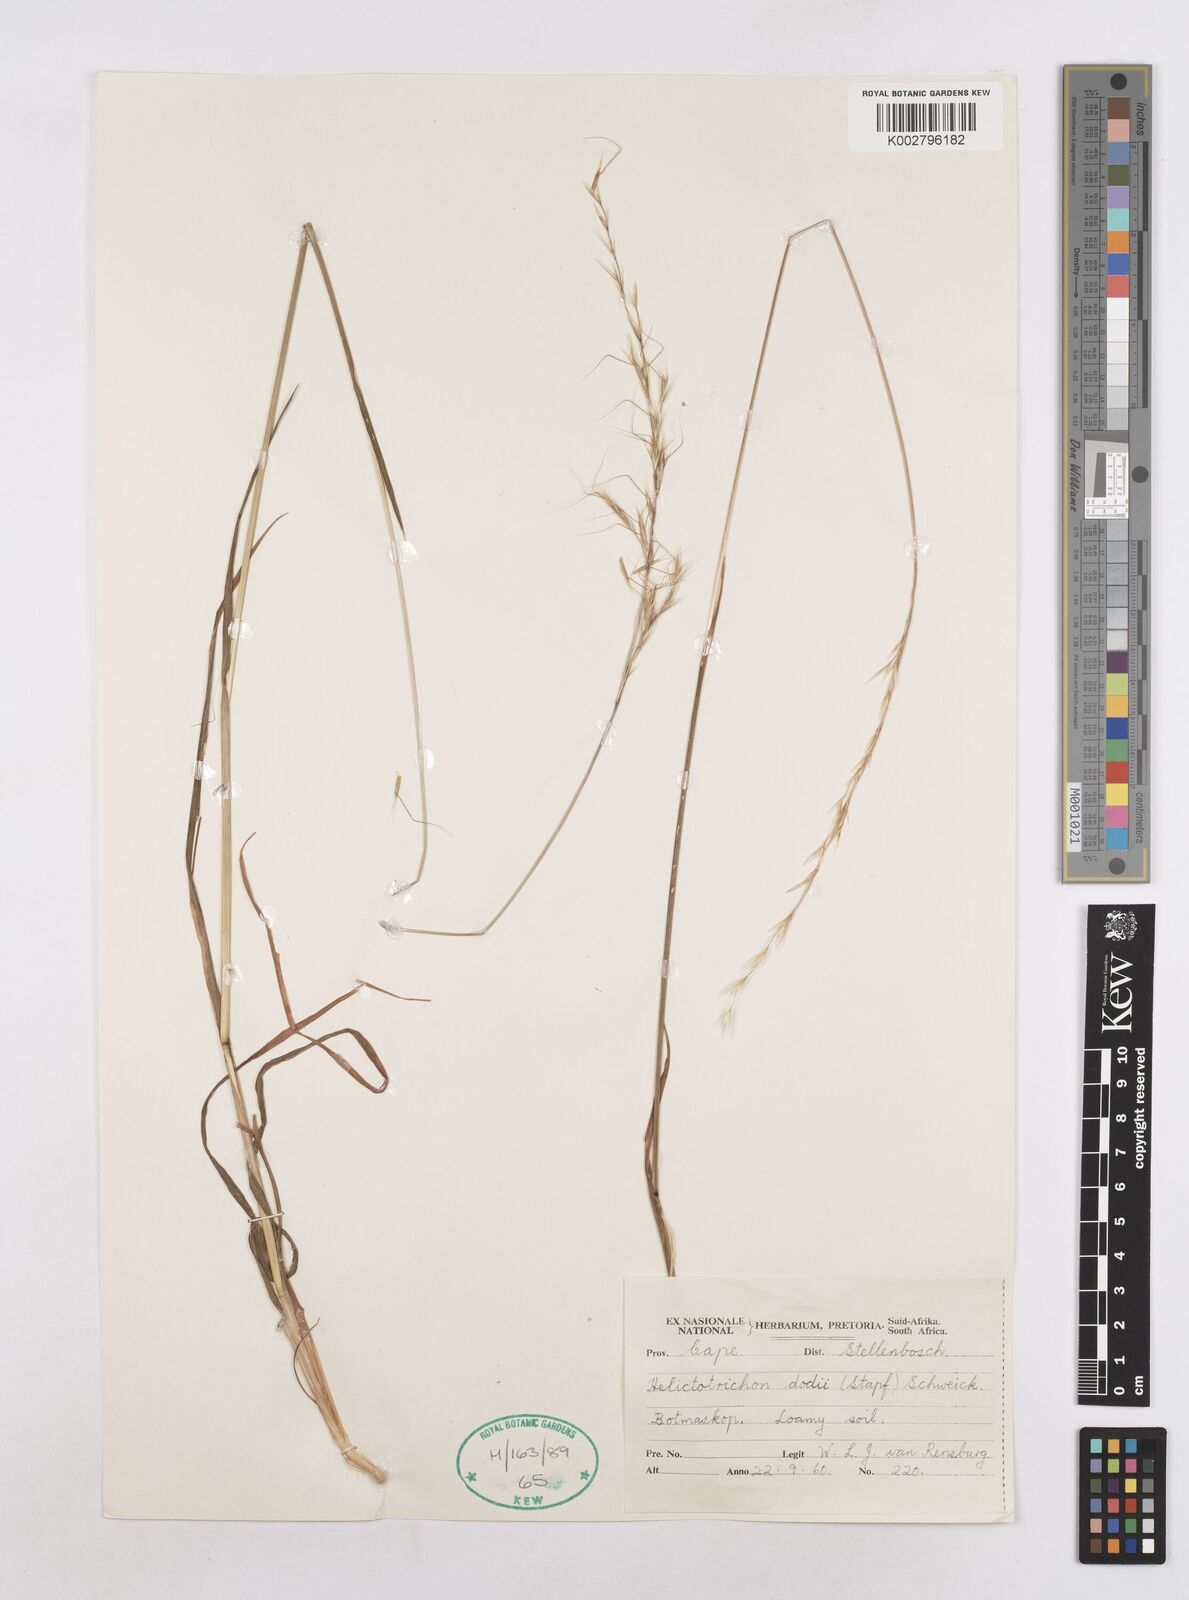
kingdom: Plantae
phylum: Tracheophyta
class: Liliopsida
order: Poales
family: Poaceae
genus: Trisetopsis
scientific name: Trisetopsis dodii
